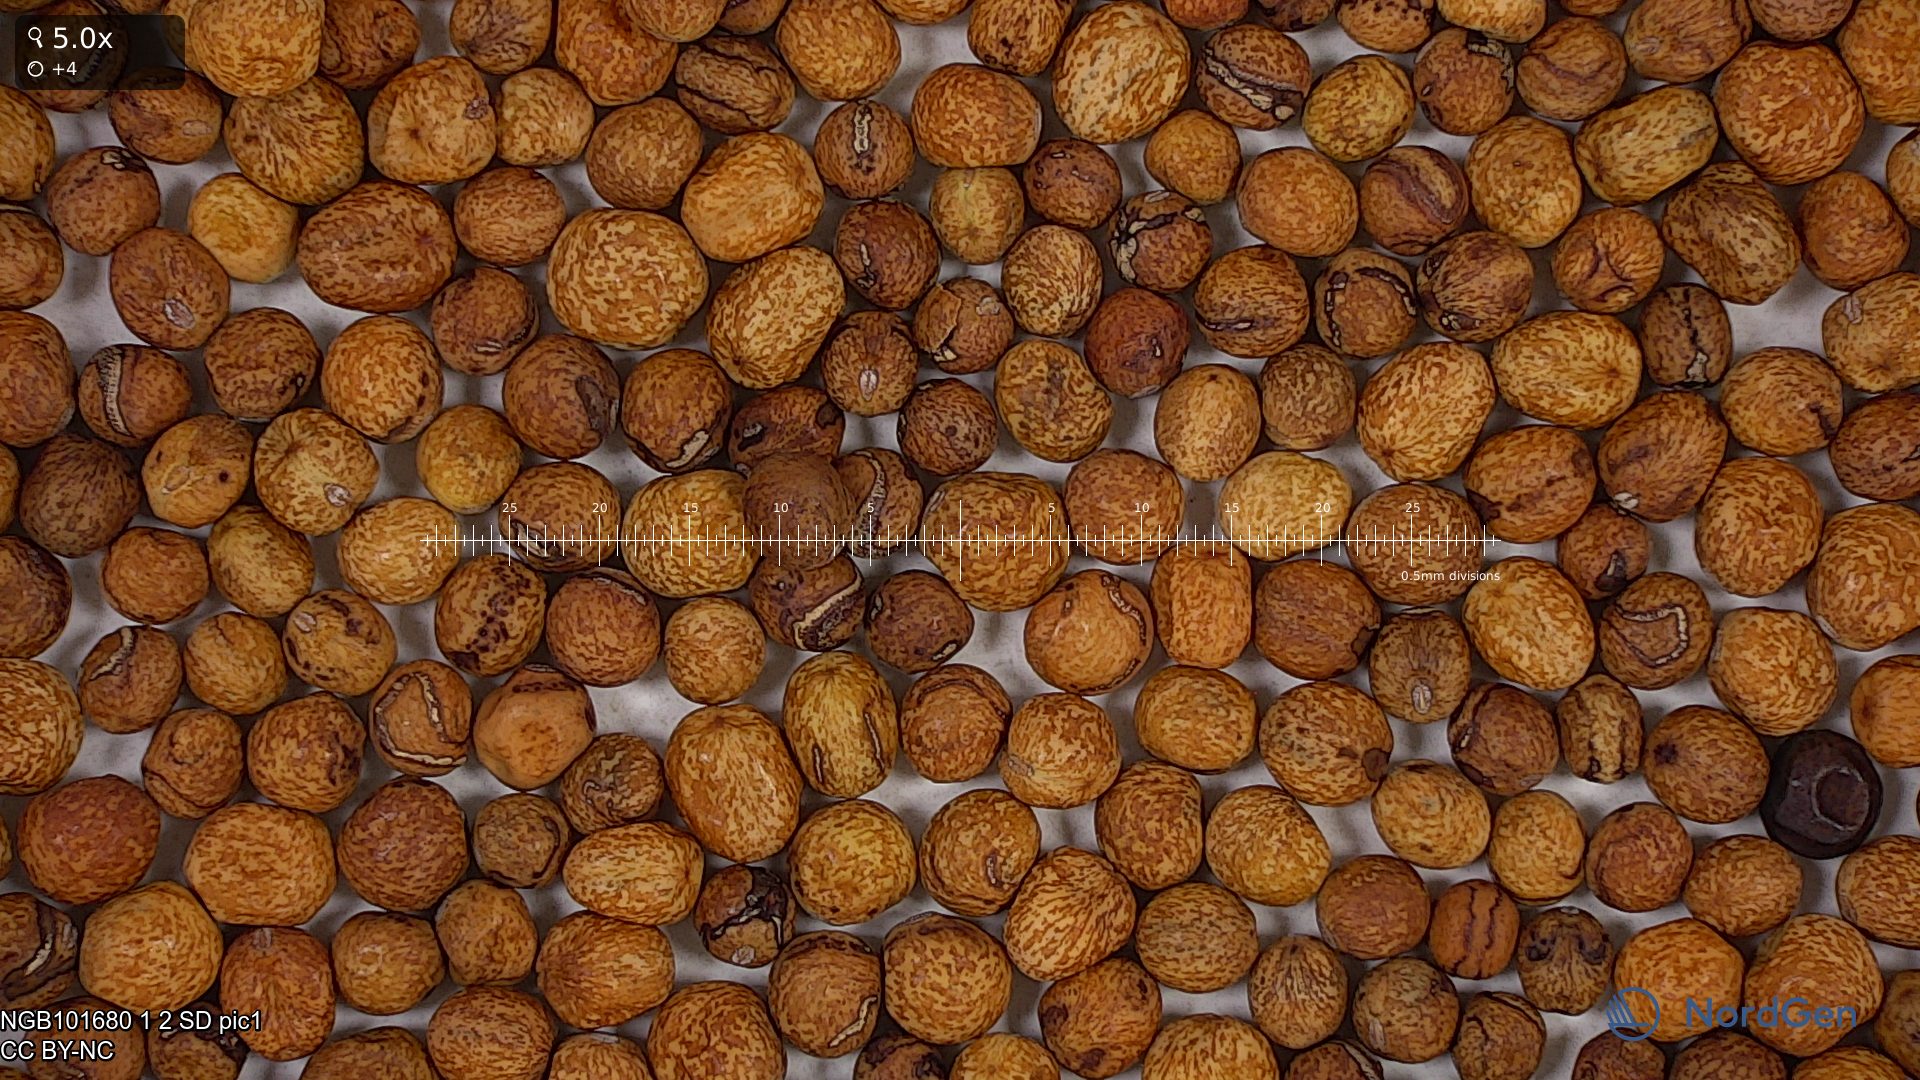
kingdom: Plantae
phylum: Tracheophyta
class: Magnoliopsida
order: Fabales
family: Fabaceae
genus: Lathyrus
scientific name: Lathyrus oleraceus
